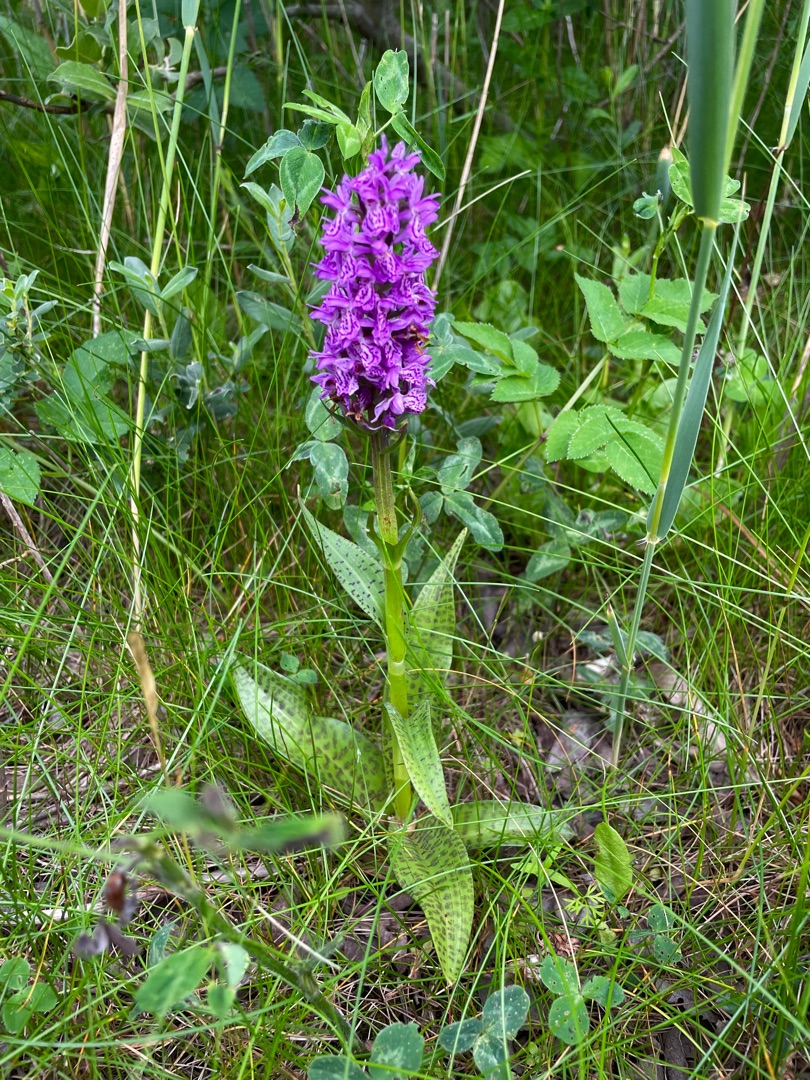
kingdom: Plantae
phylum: Tracheophyta
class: Liliopsida
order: Asparagales
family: Orchidaceae
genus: Dactylorhiza
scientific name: Dactylorhiza majalis
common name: Ringplettet gøgeurt
